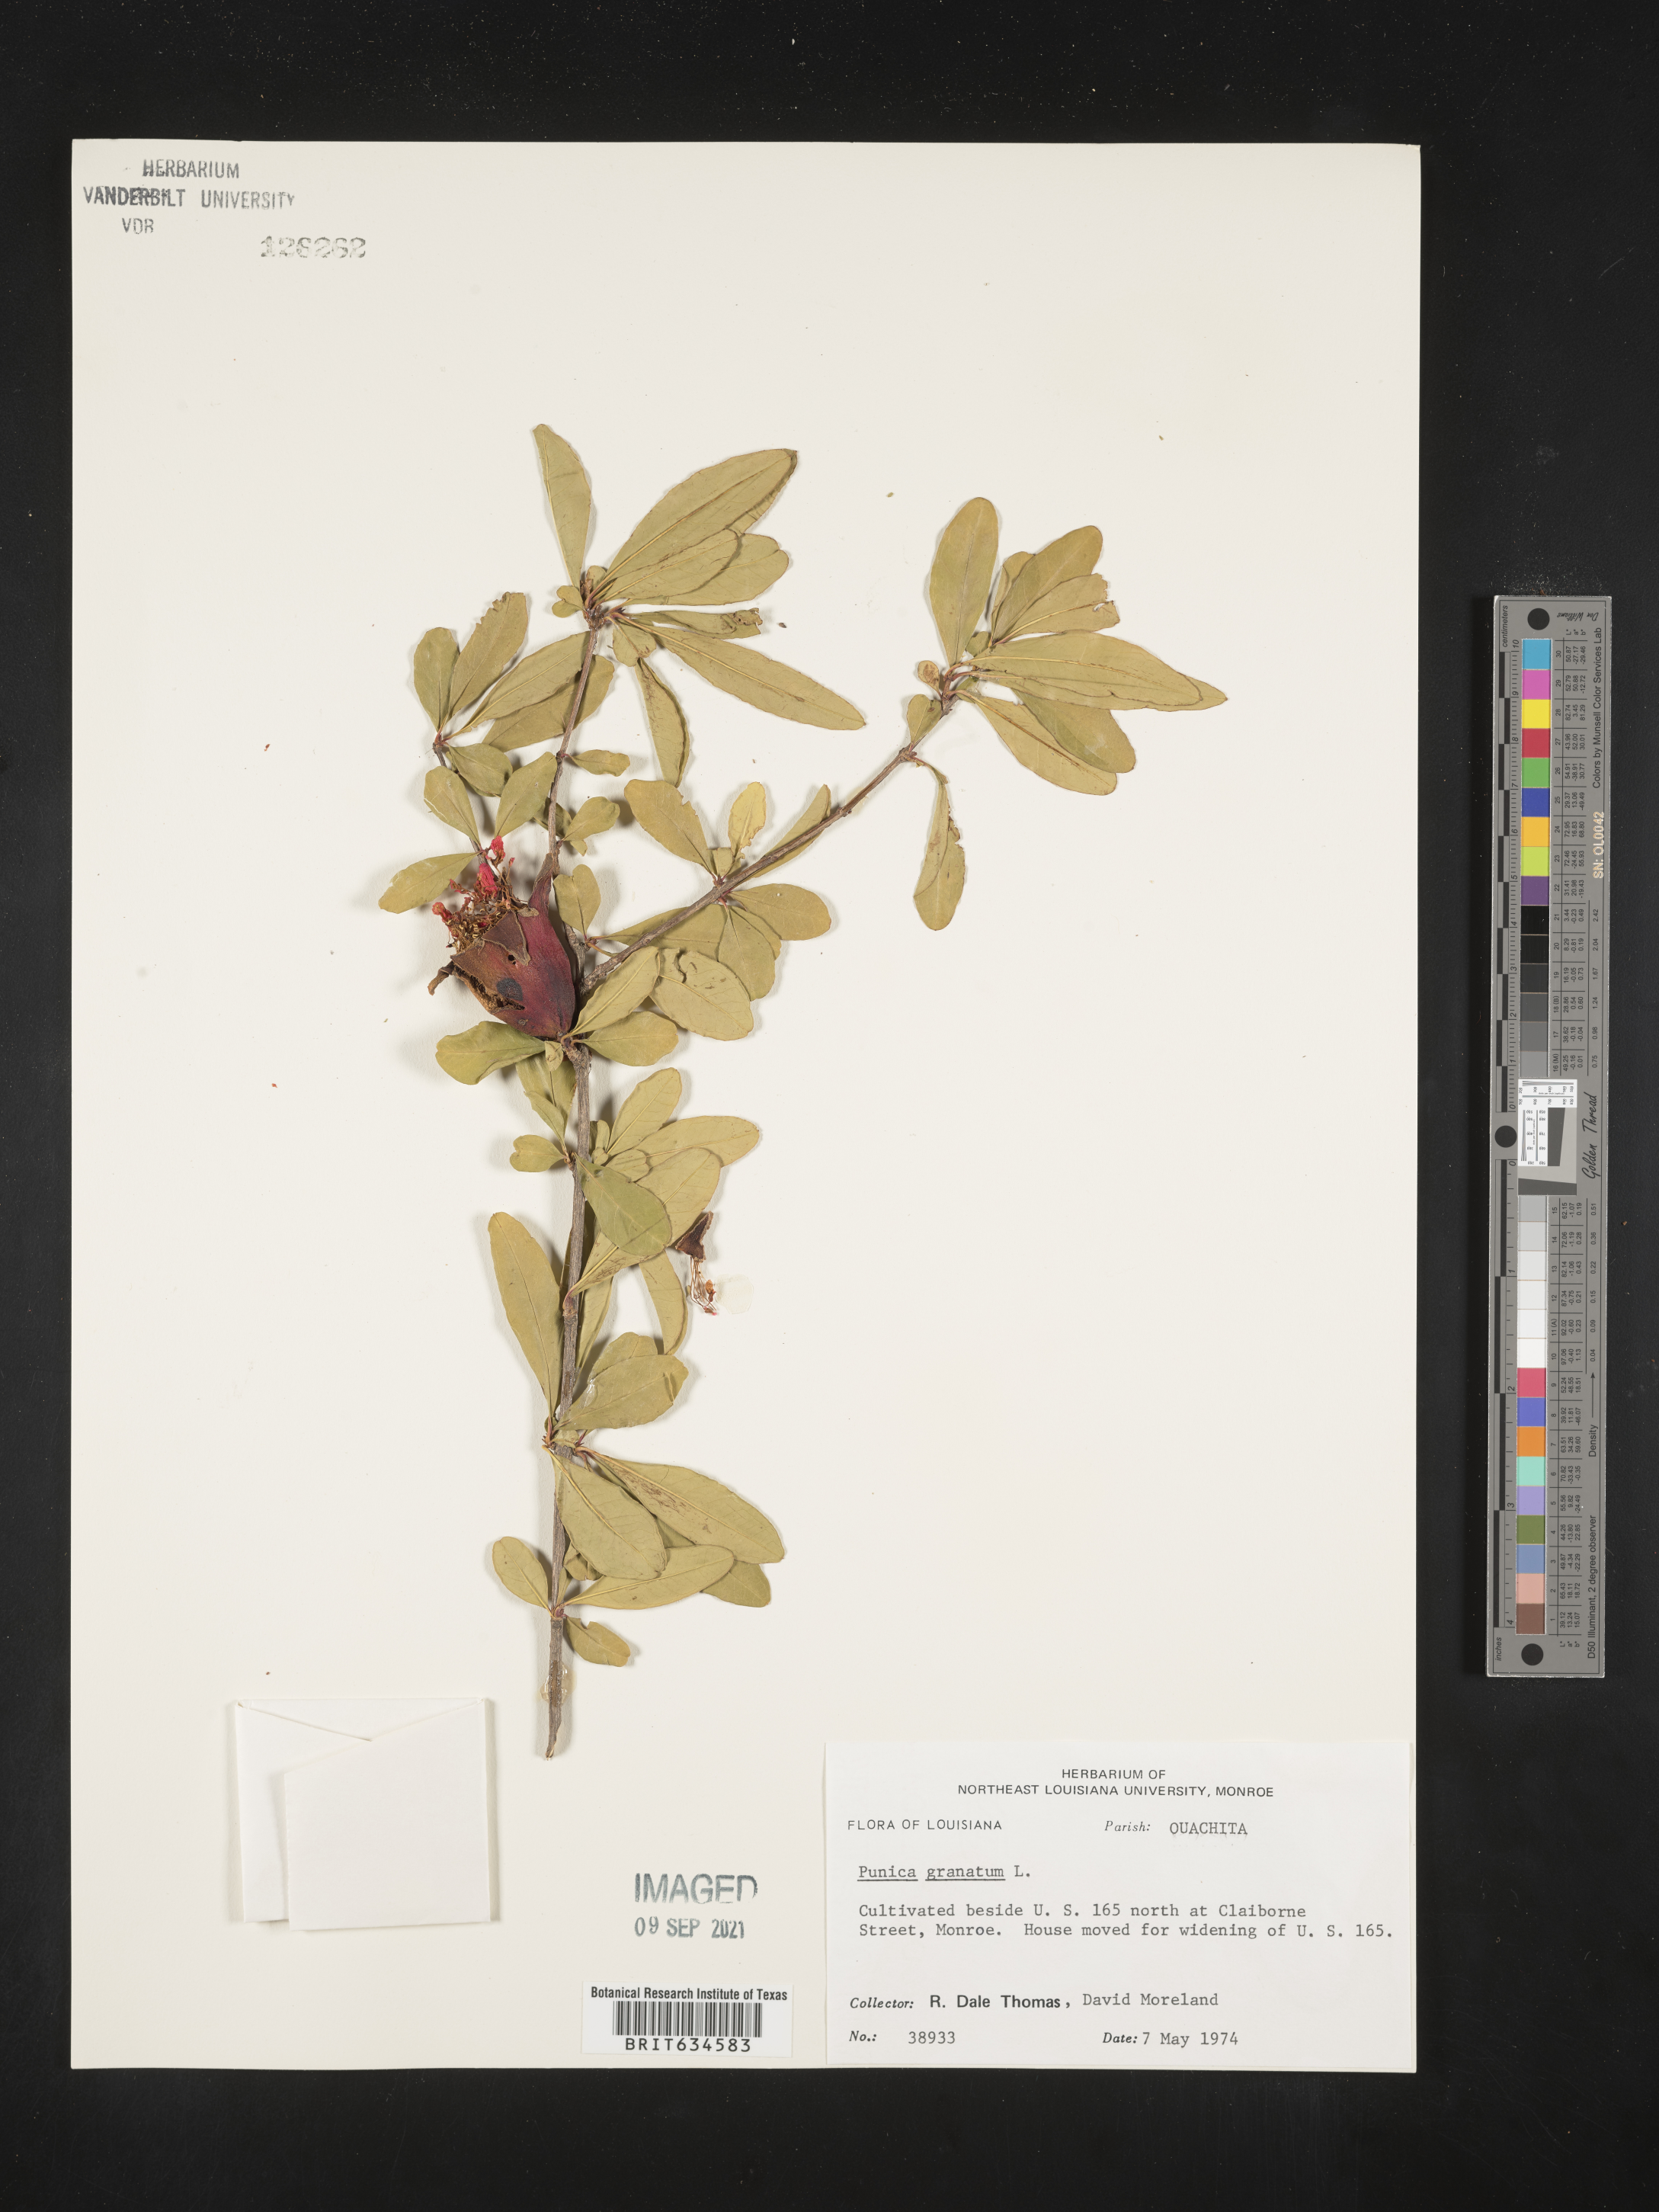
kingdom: Plantae
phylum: Tracheophyta
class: Magnoliopsida
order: Myrtales
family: Lythraceae
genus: Punica
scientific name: Punica
